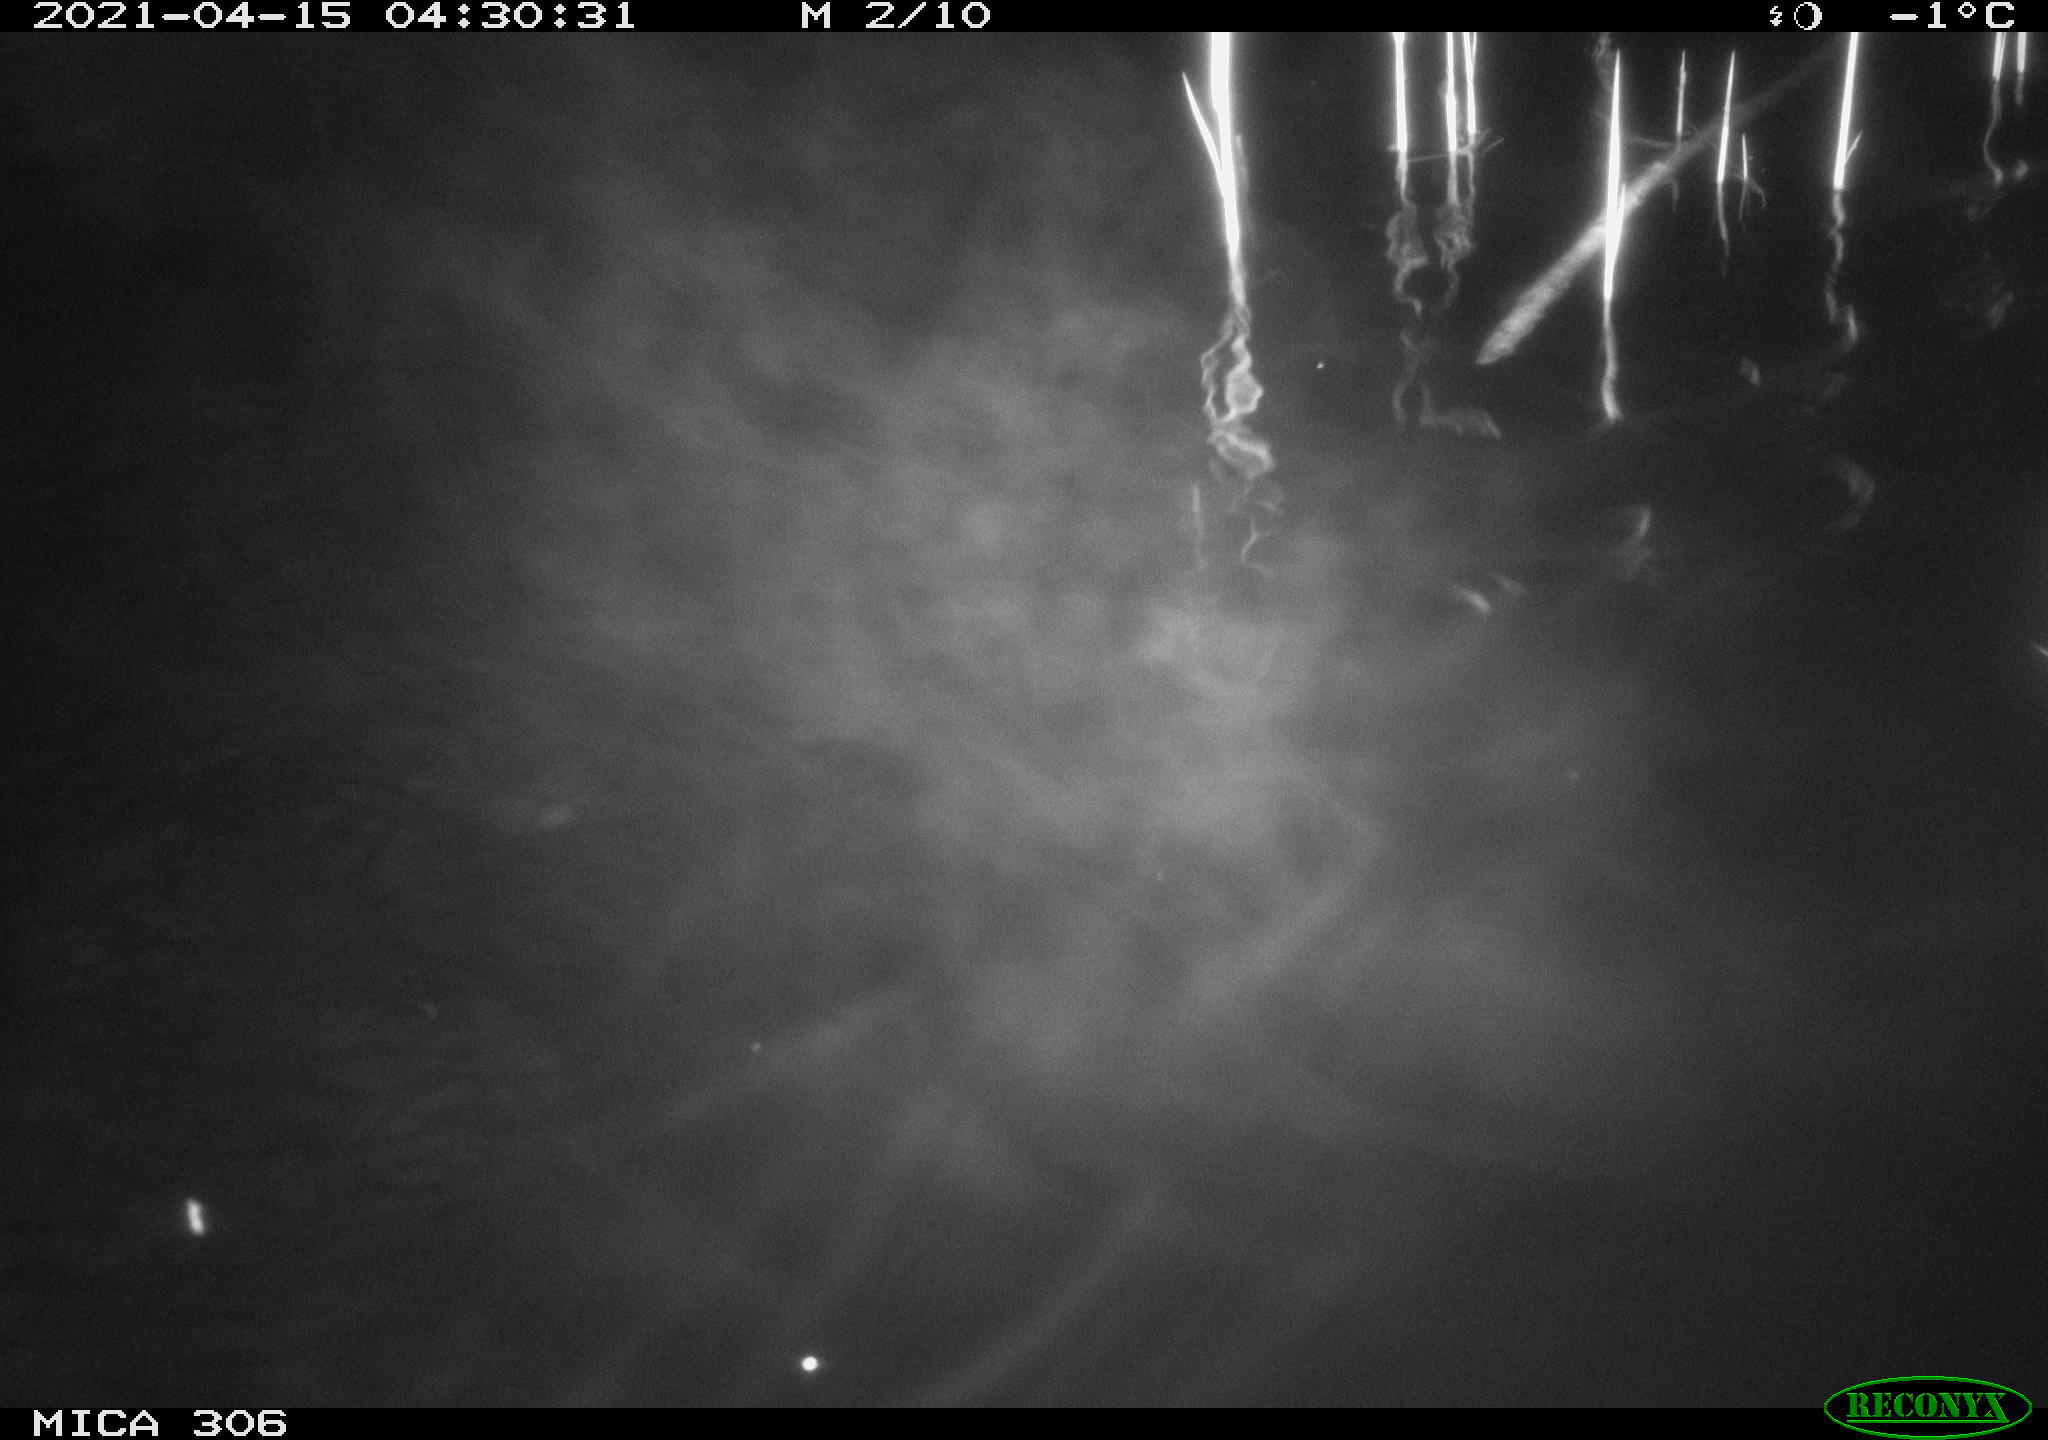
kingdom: Animalia
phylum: Chordata
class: Mammalia
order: Rodentia
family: Cricetidae
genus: Ondatra
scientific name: Ondatra zibethicus
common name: Muskrat
